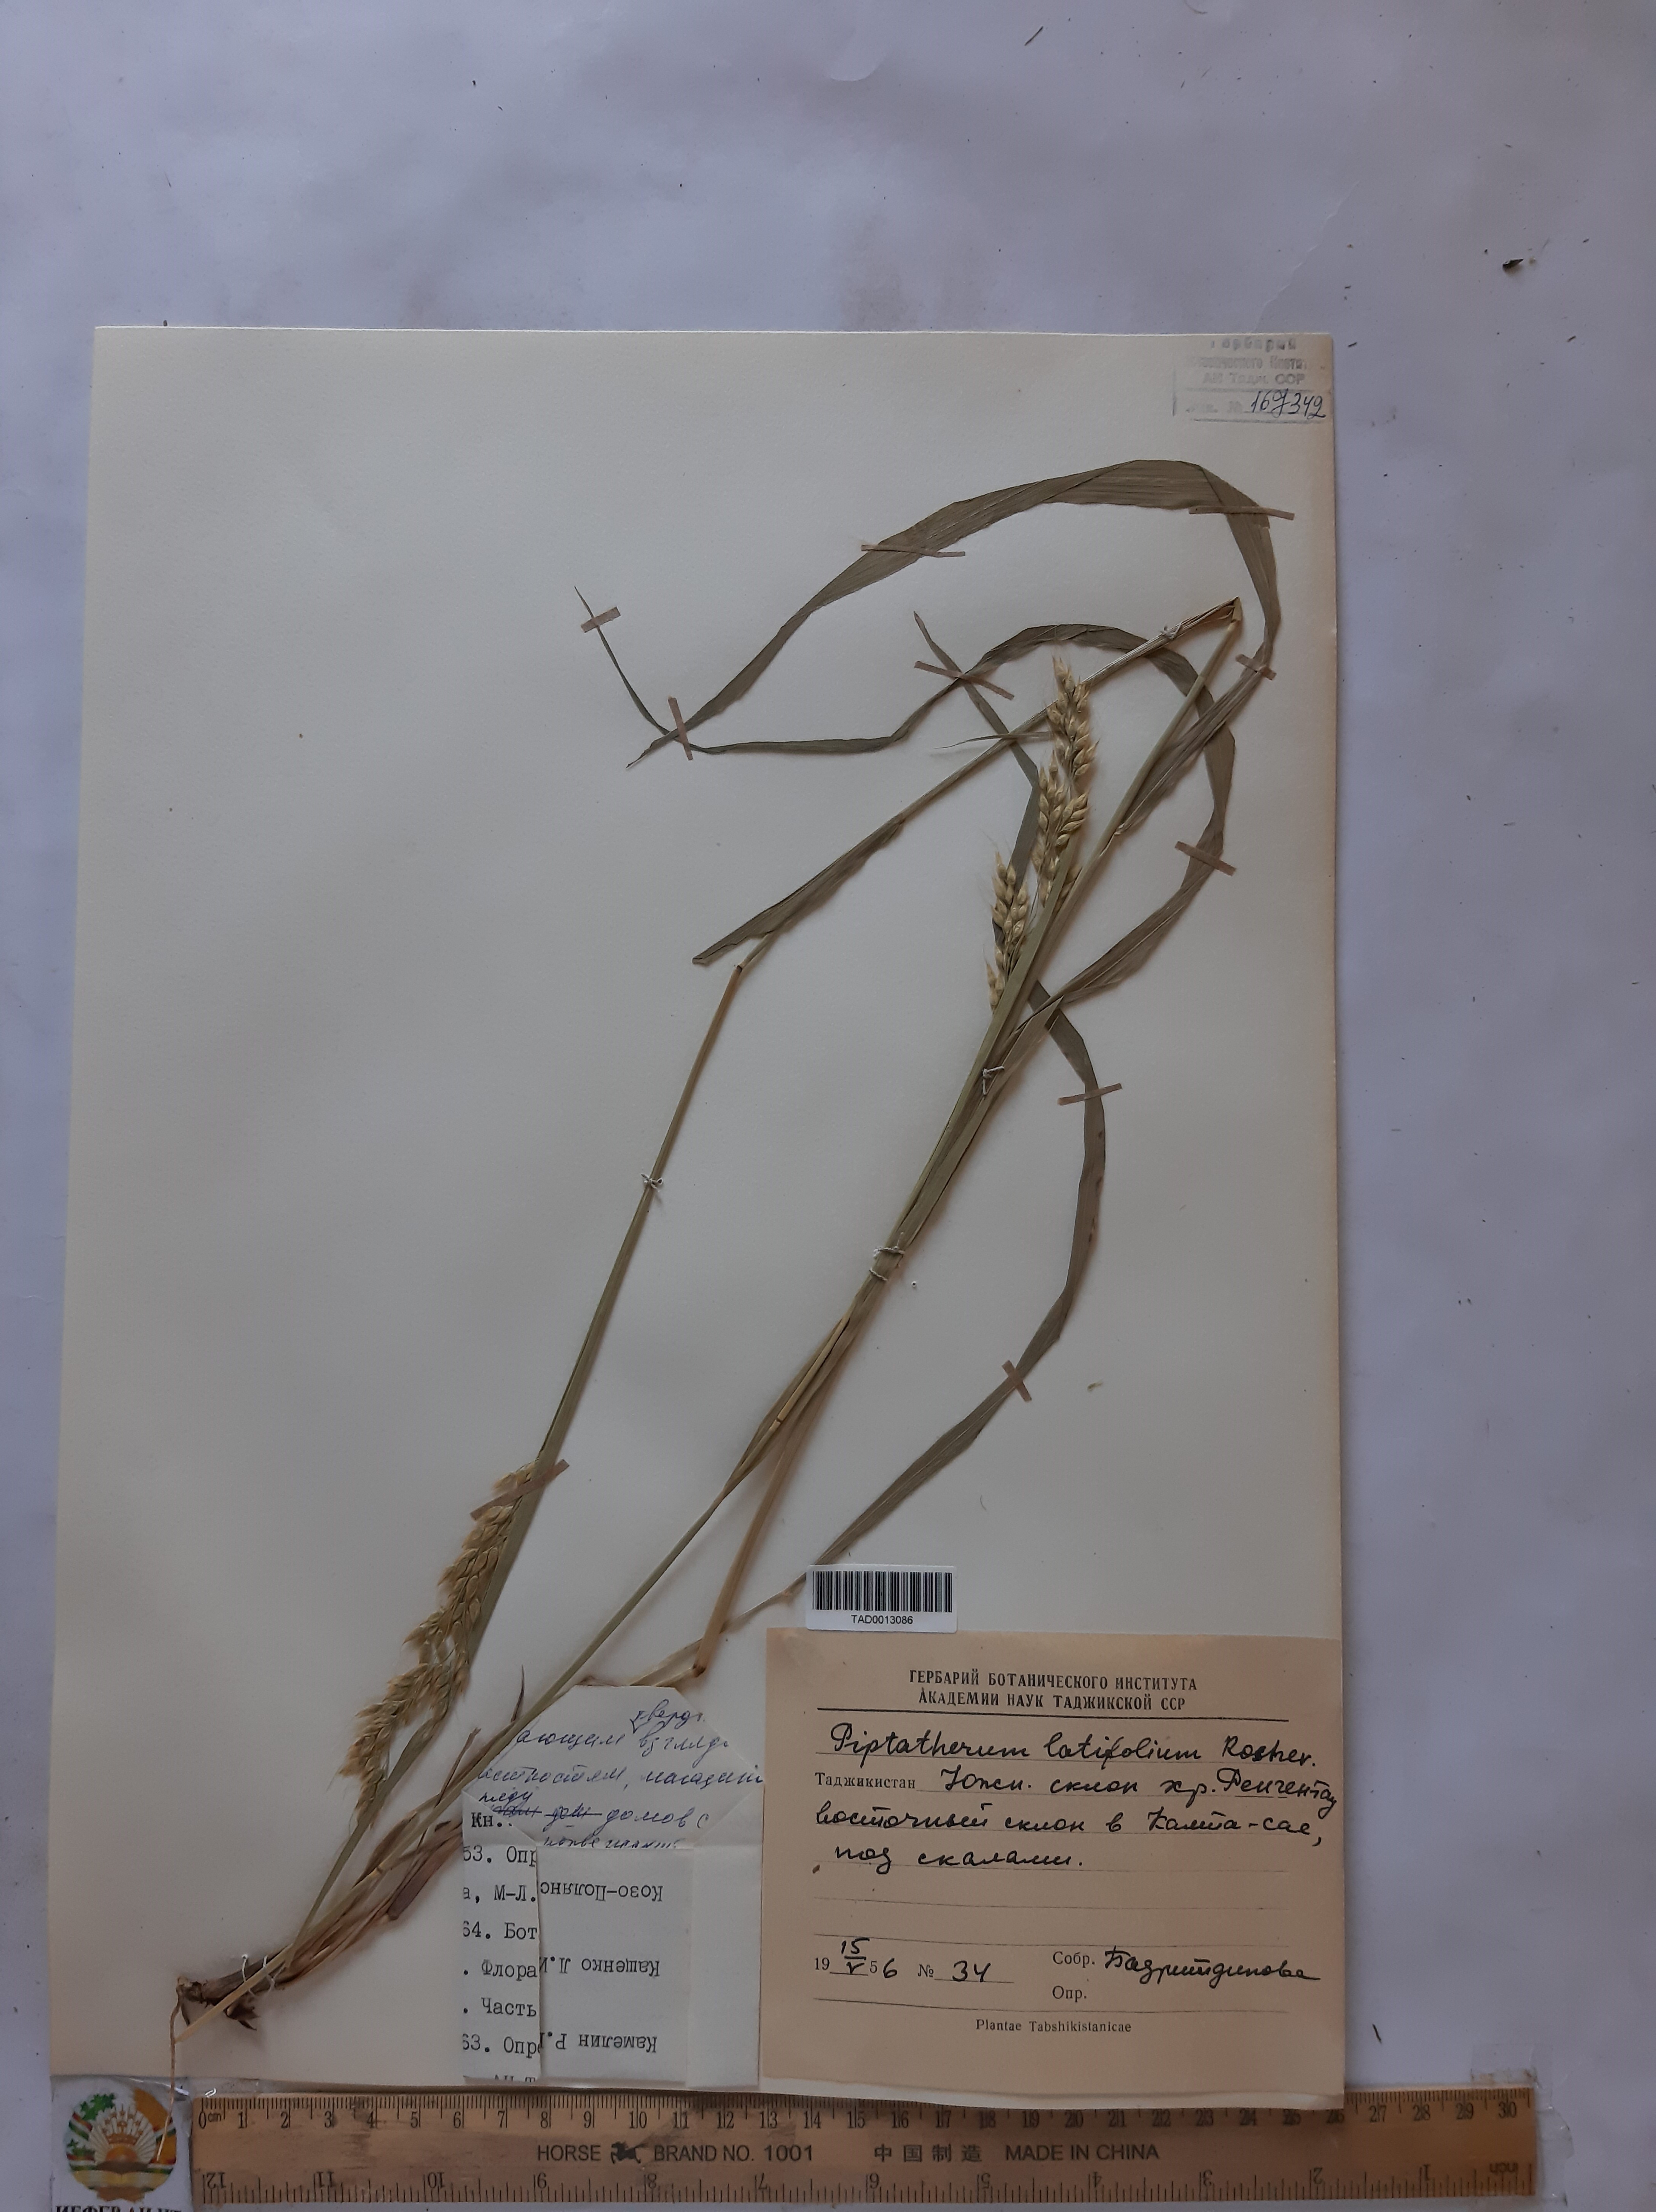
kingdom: Plantae
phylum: Tracheophyta
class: Liliopsida
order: Poales
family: Poaceae
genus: Piptatherum
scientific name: Piptatherum latifolium
